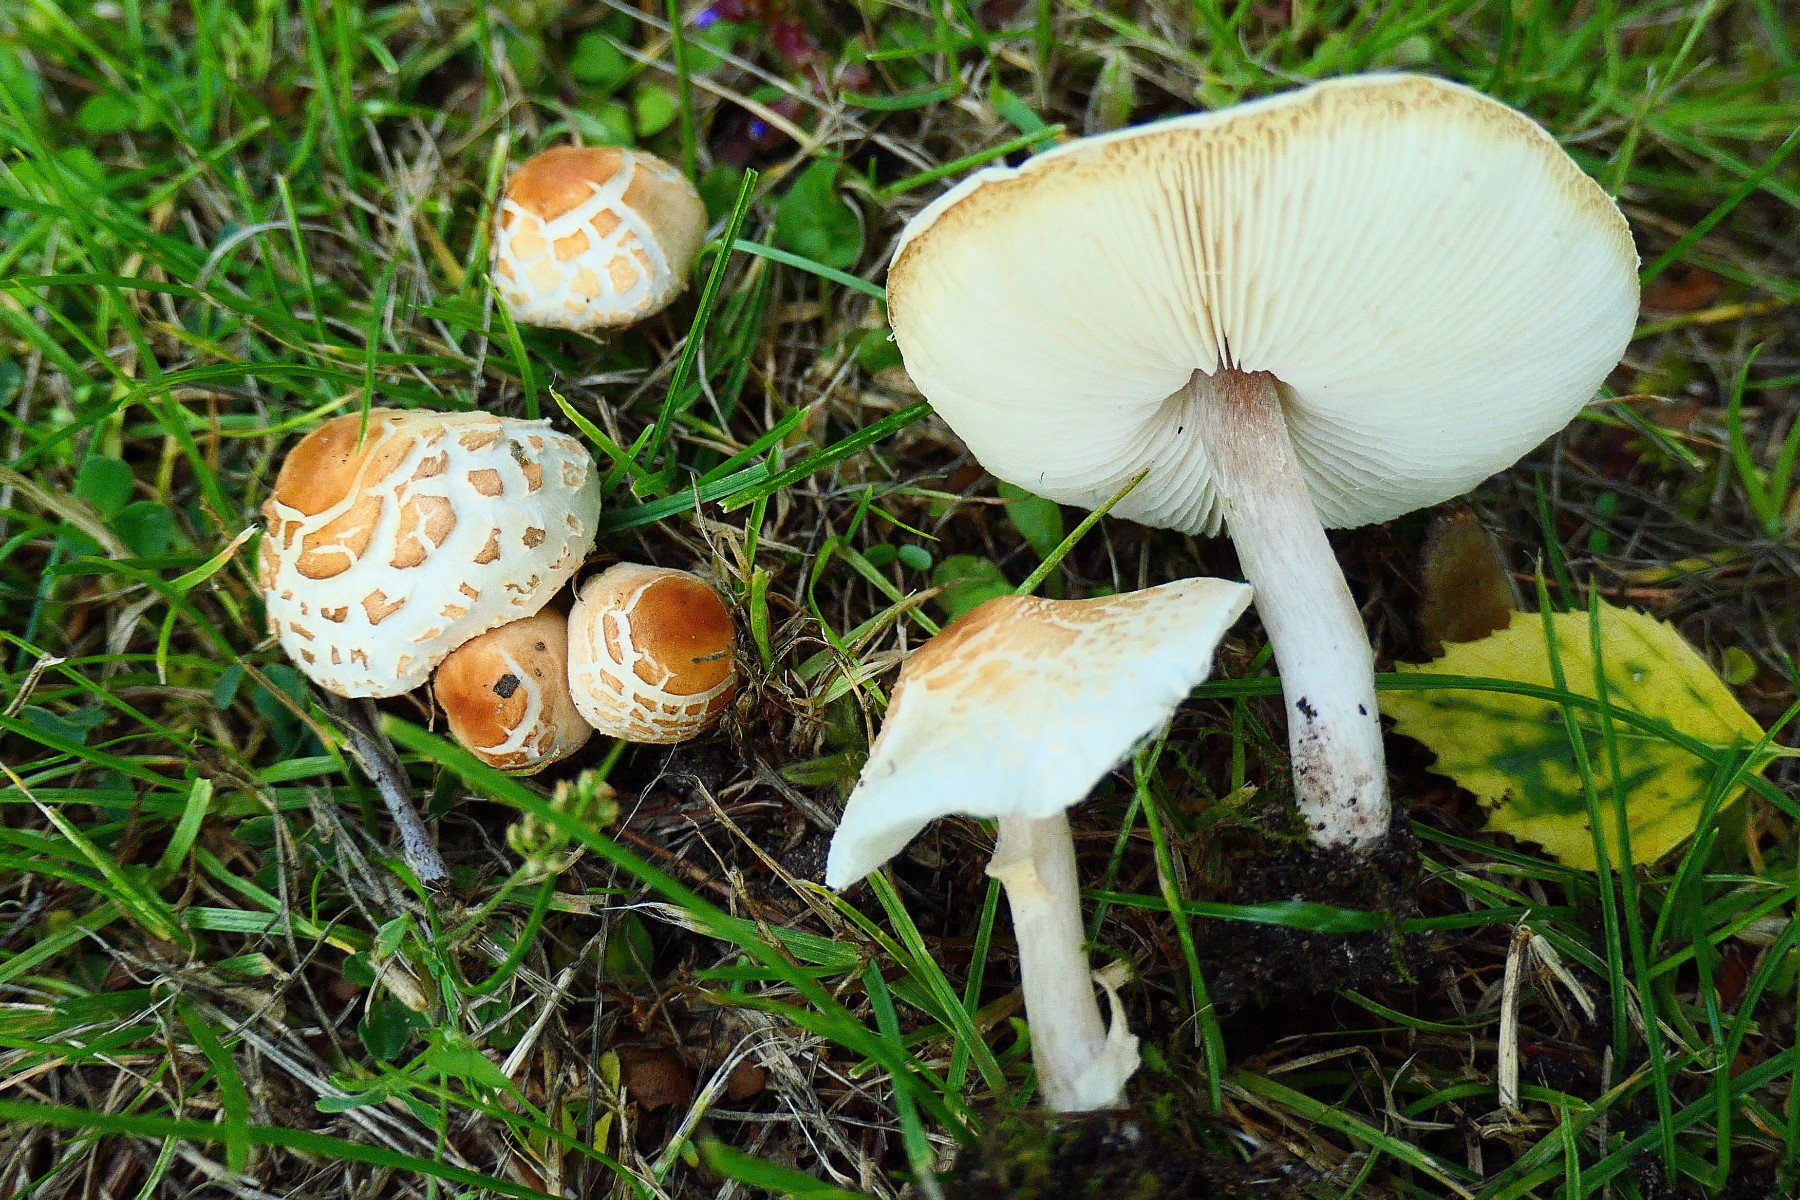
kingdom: Fungi
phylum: Basidiomycota
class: Agaricomycetes
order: Agaricales
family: Agaricaceae
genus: Lepiota
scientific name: Lepiota cristata
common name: stinkende parasolhat
